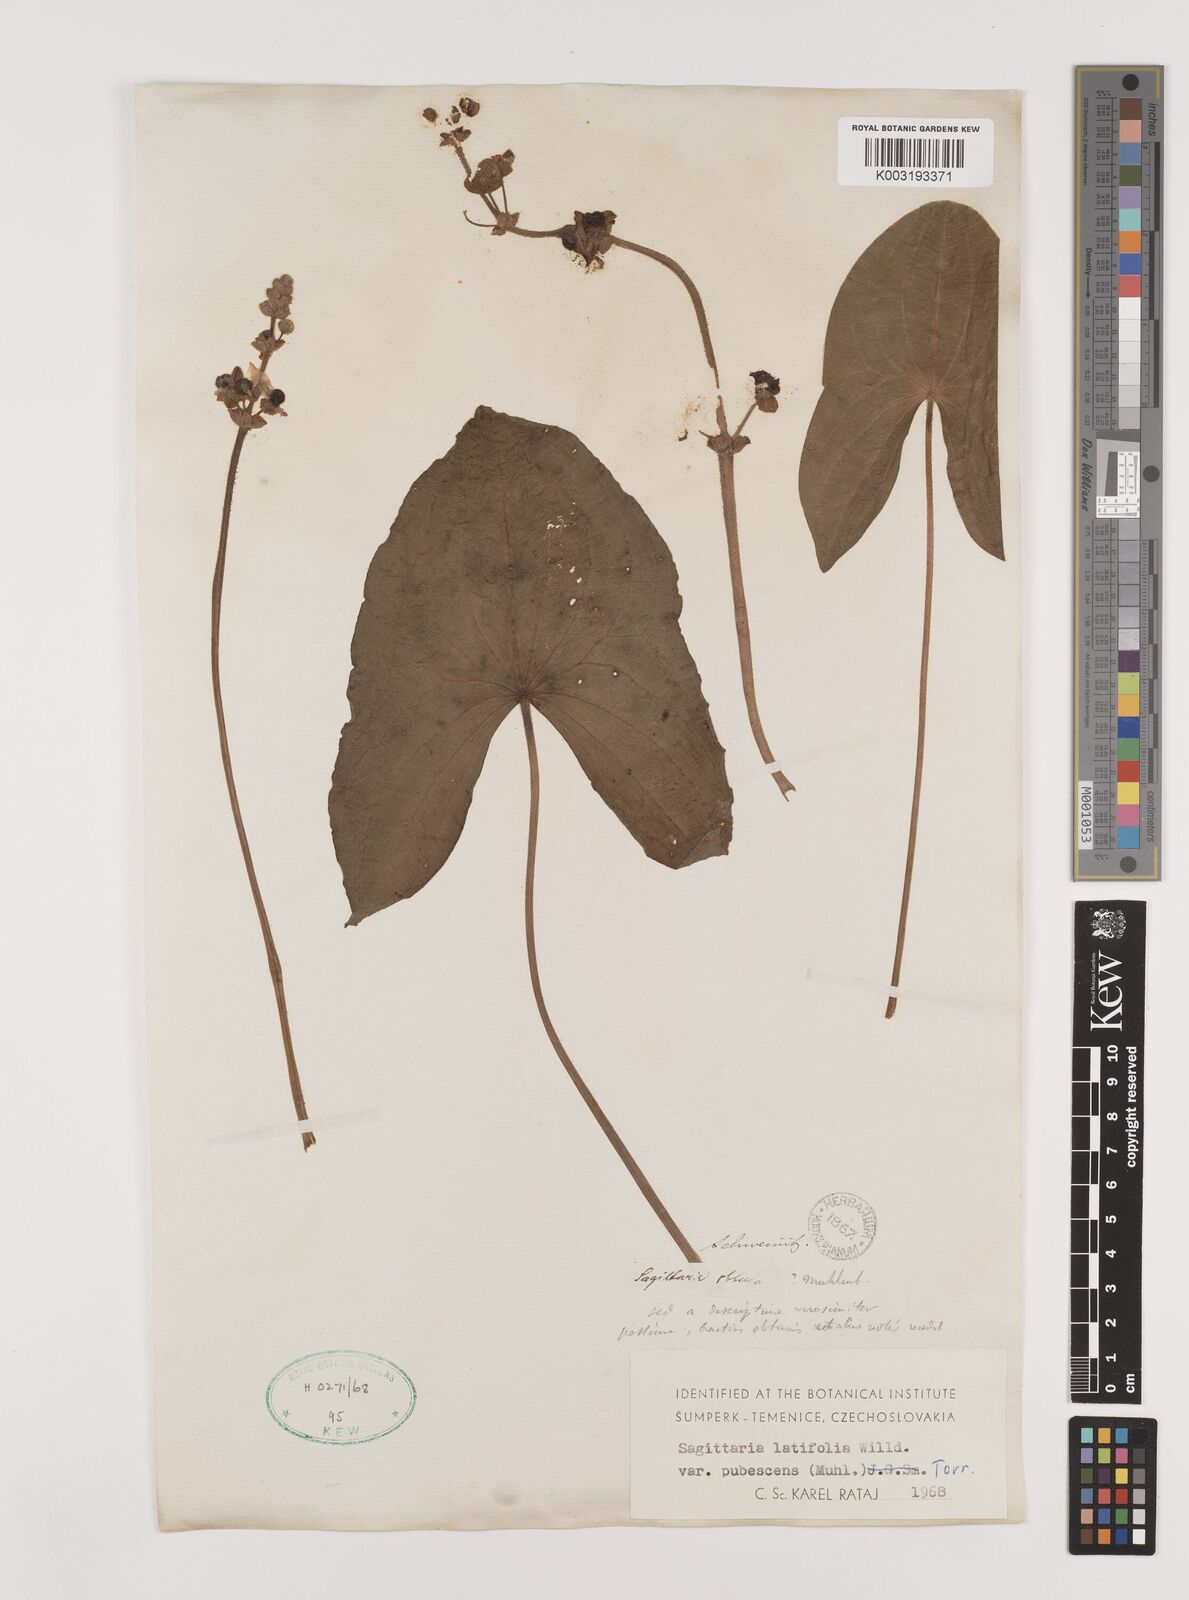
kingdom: Plantae
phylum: Tracheophyta
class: Liliopsida
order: Alismatales
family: Alismataceae
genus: Sagittaria
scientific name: Sagittaria latifolia
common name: Duck-potato
